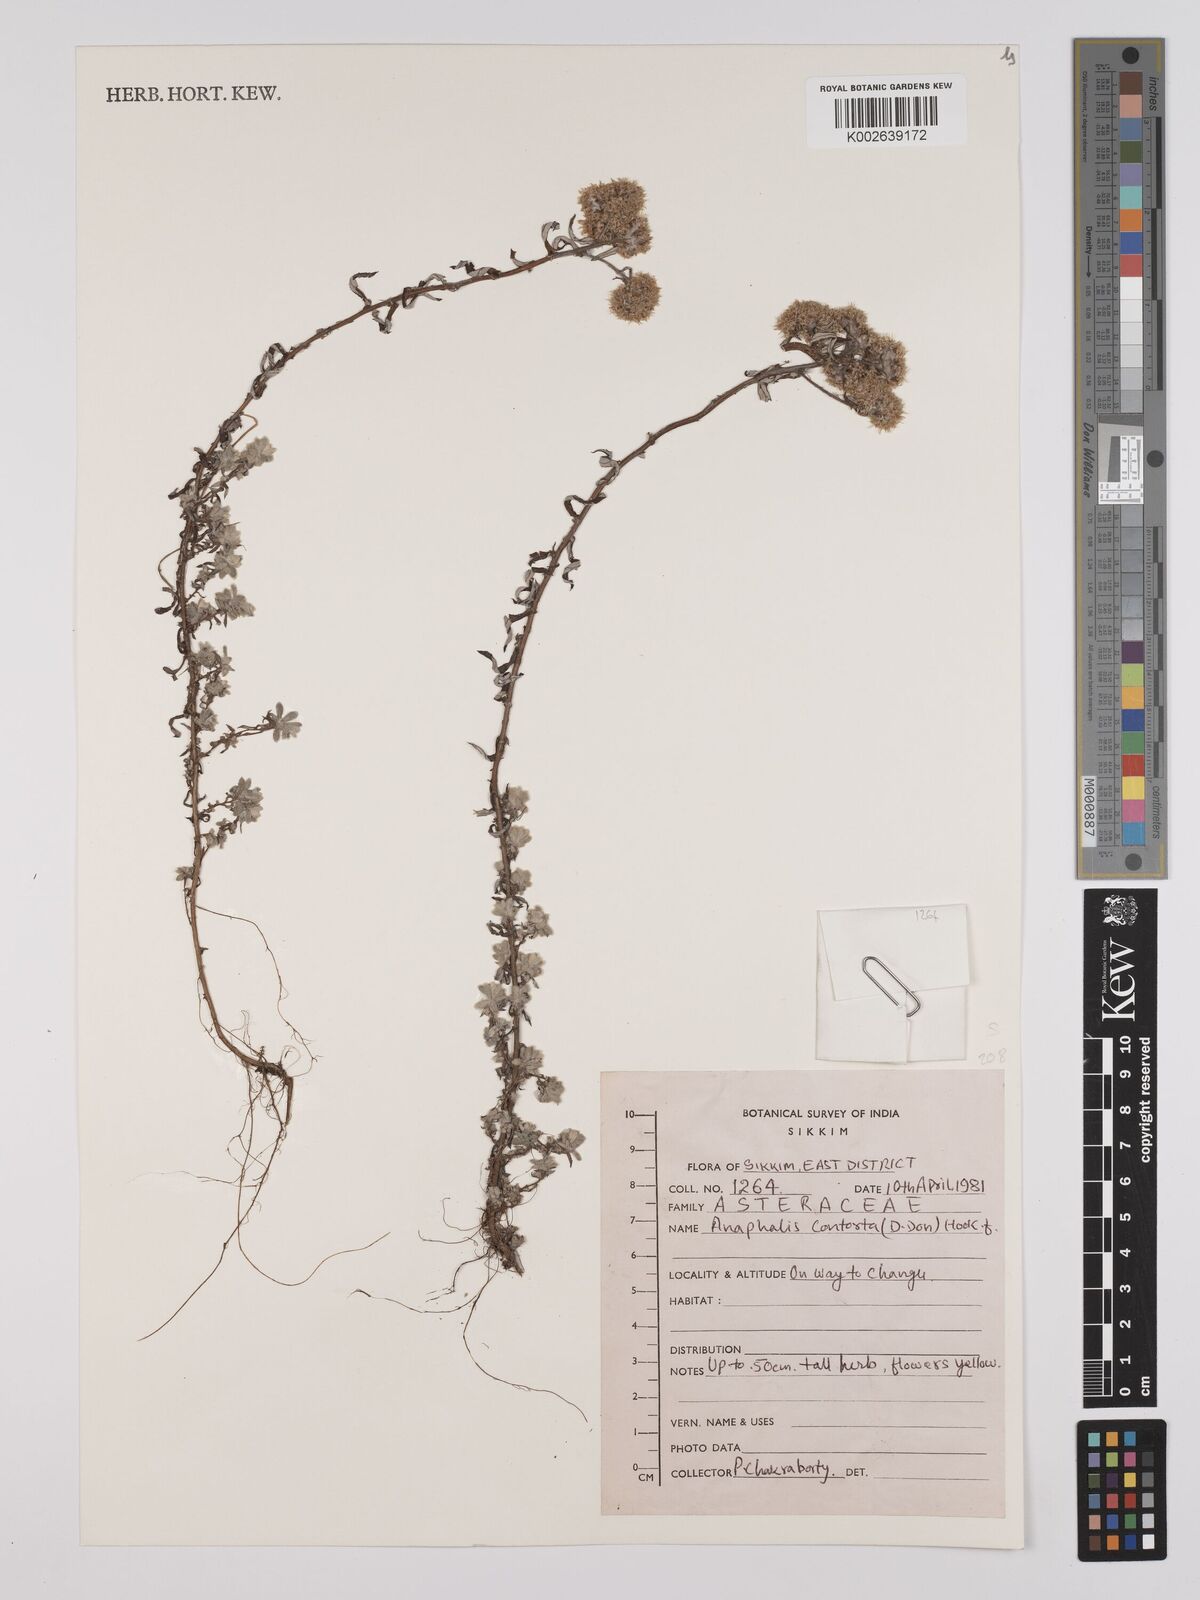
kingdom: Plantae
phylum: Tracheophyta
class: Magnoliopsida
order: Asterales
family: Asteraceae
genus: Anaphalis
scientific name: Anaphalis contorta
